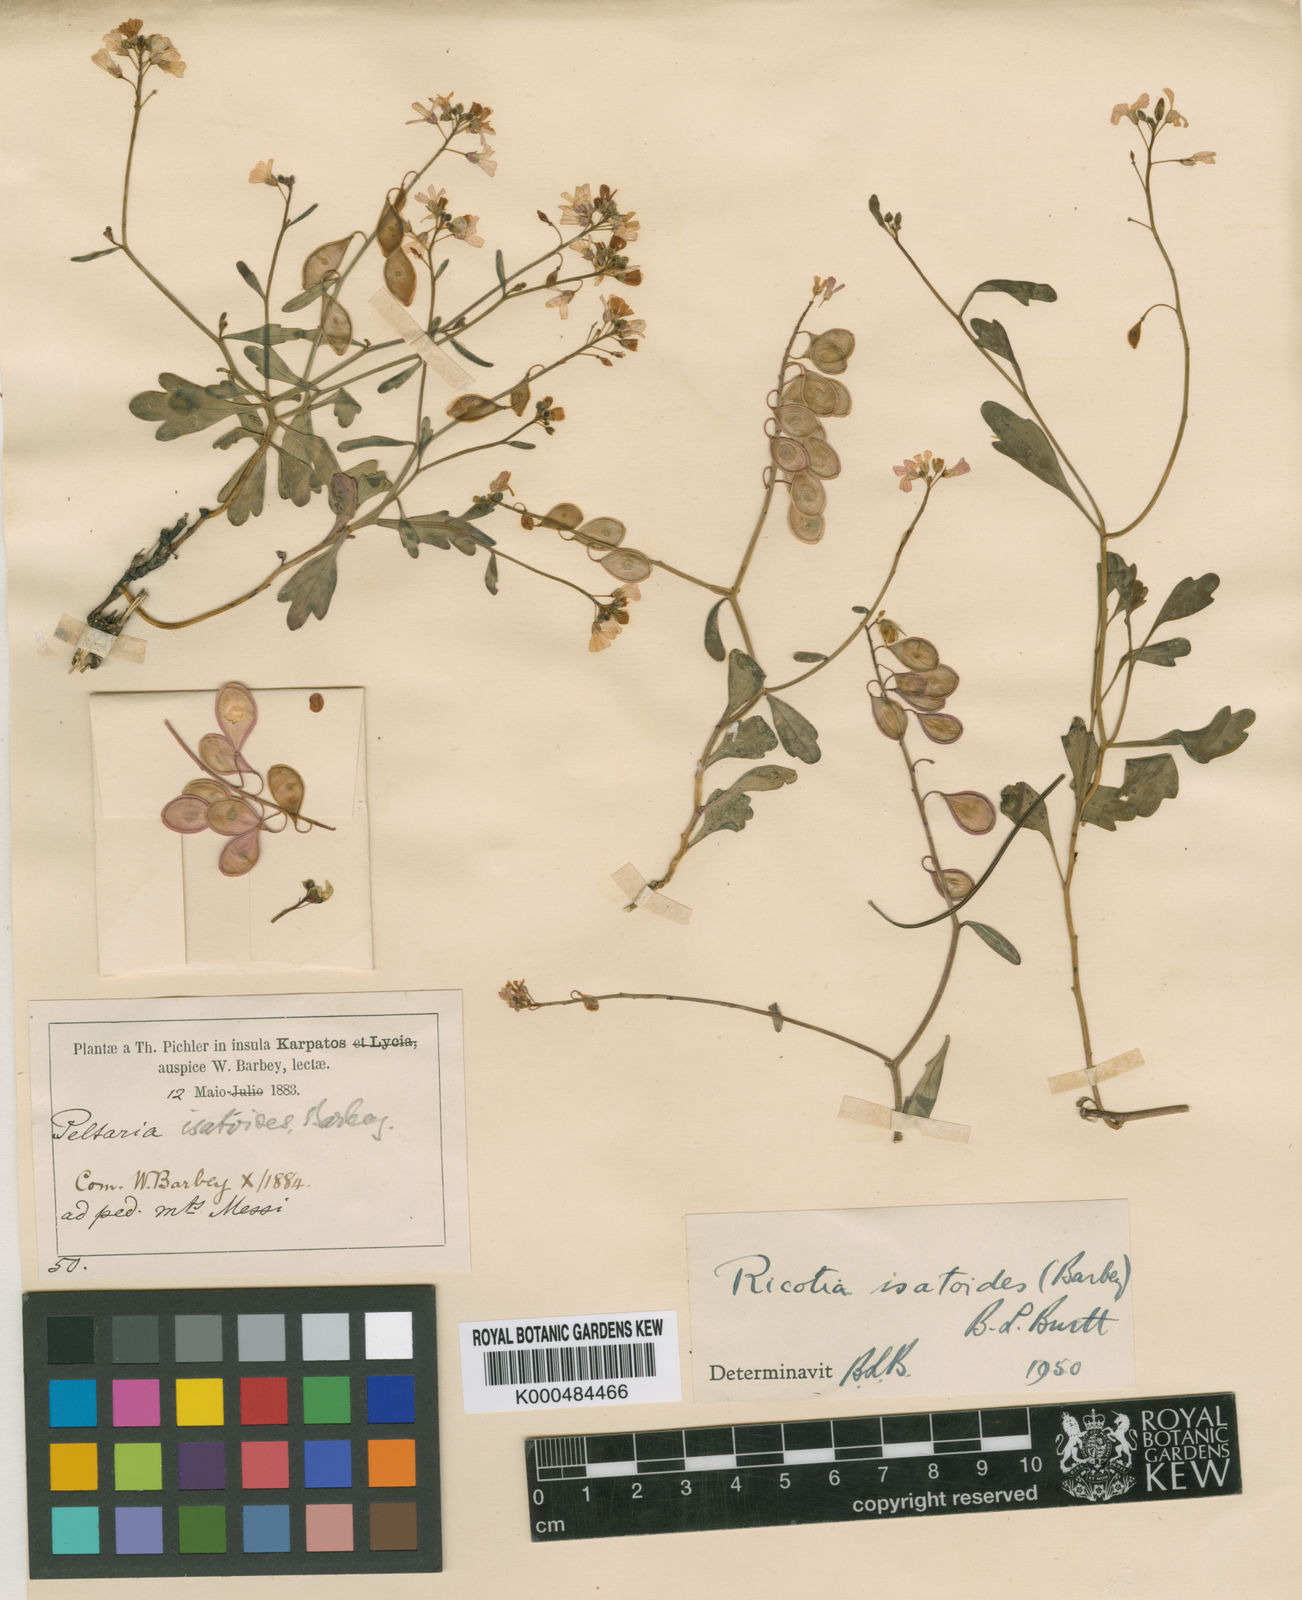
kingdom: Plantae
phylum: Tracheophyta
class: Magnoliopsida
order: Brassicales
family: Brassicaceae
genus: Ricotia
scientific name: Ricotia isatoides
